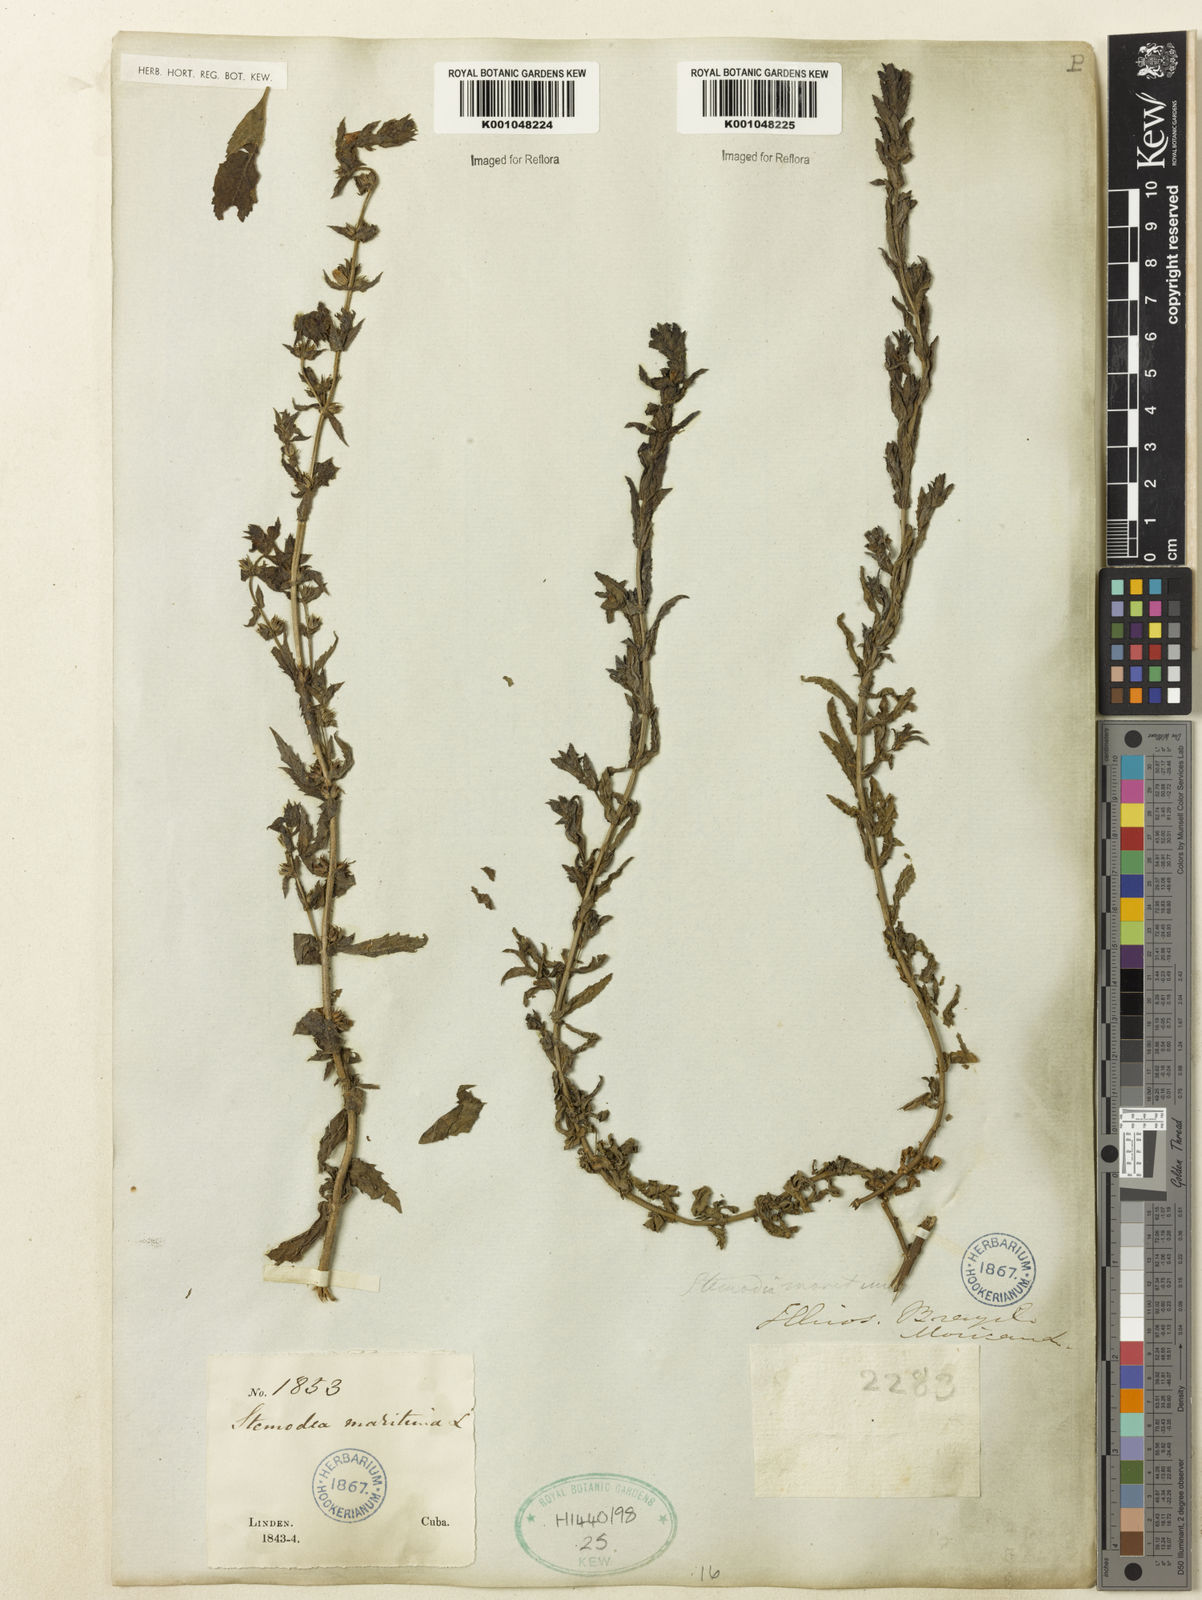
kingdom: Plantae
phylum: Tracheophyta
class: Magnoliopsida
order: Lamiales
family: Plantaginaceae
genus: Stemodia
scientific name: Stemodia maritima
